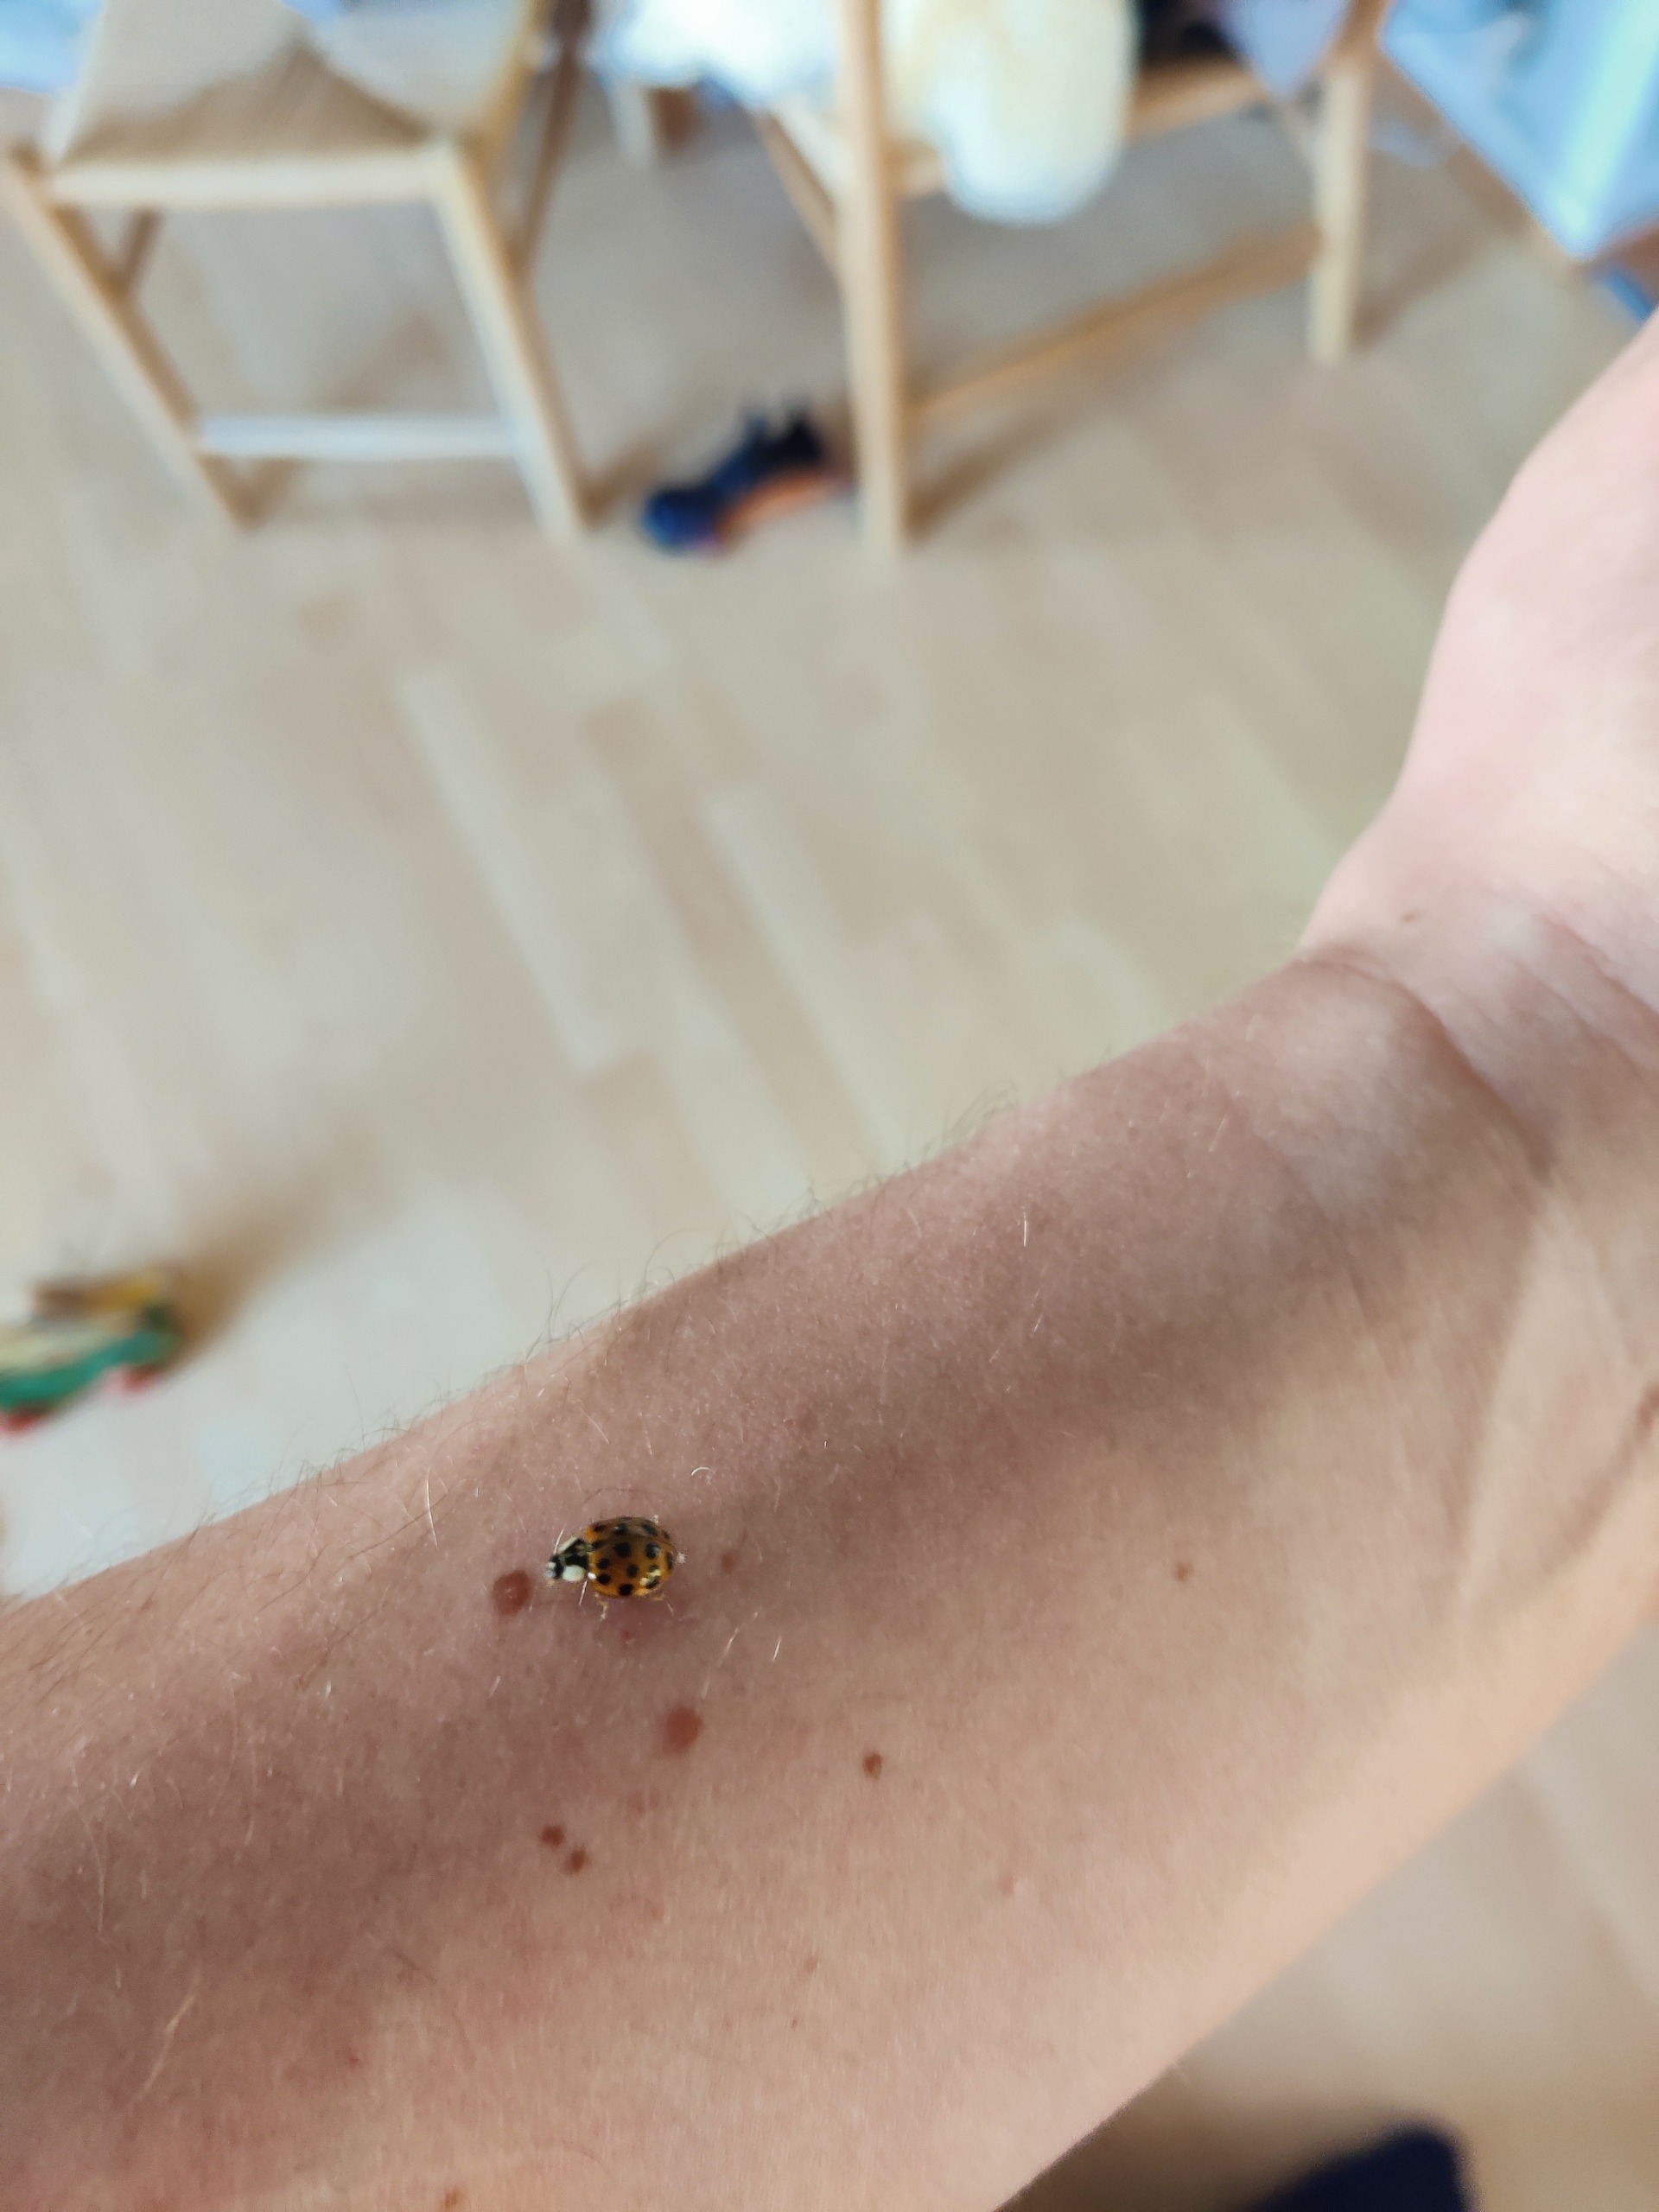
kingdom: Animalia
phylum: Arthropoda
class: Insecta
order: Coleoptera
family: Coccinellidae
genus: Harmonia
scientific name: Harmonia axyridis
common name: Harlekinmariehøne
